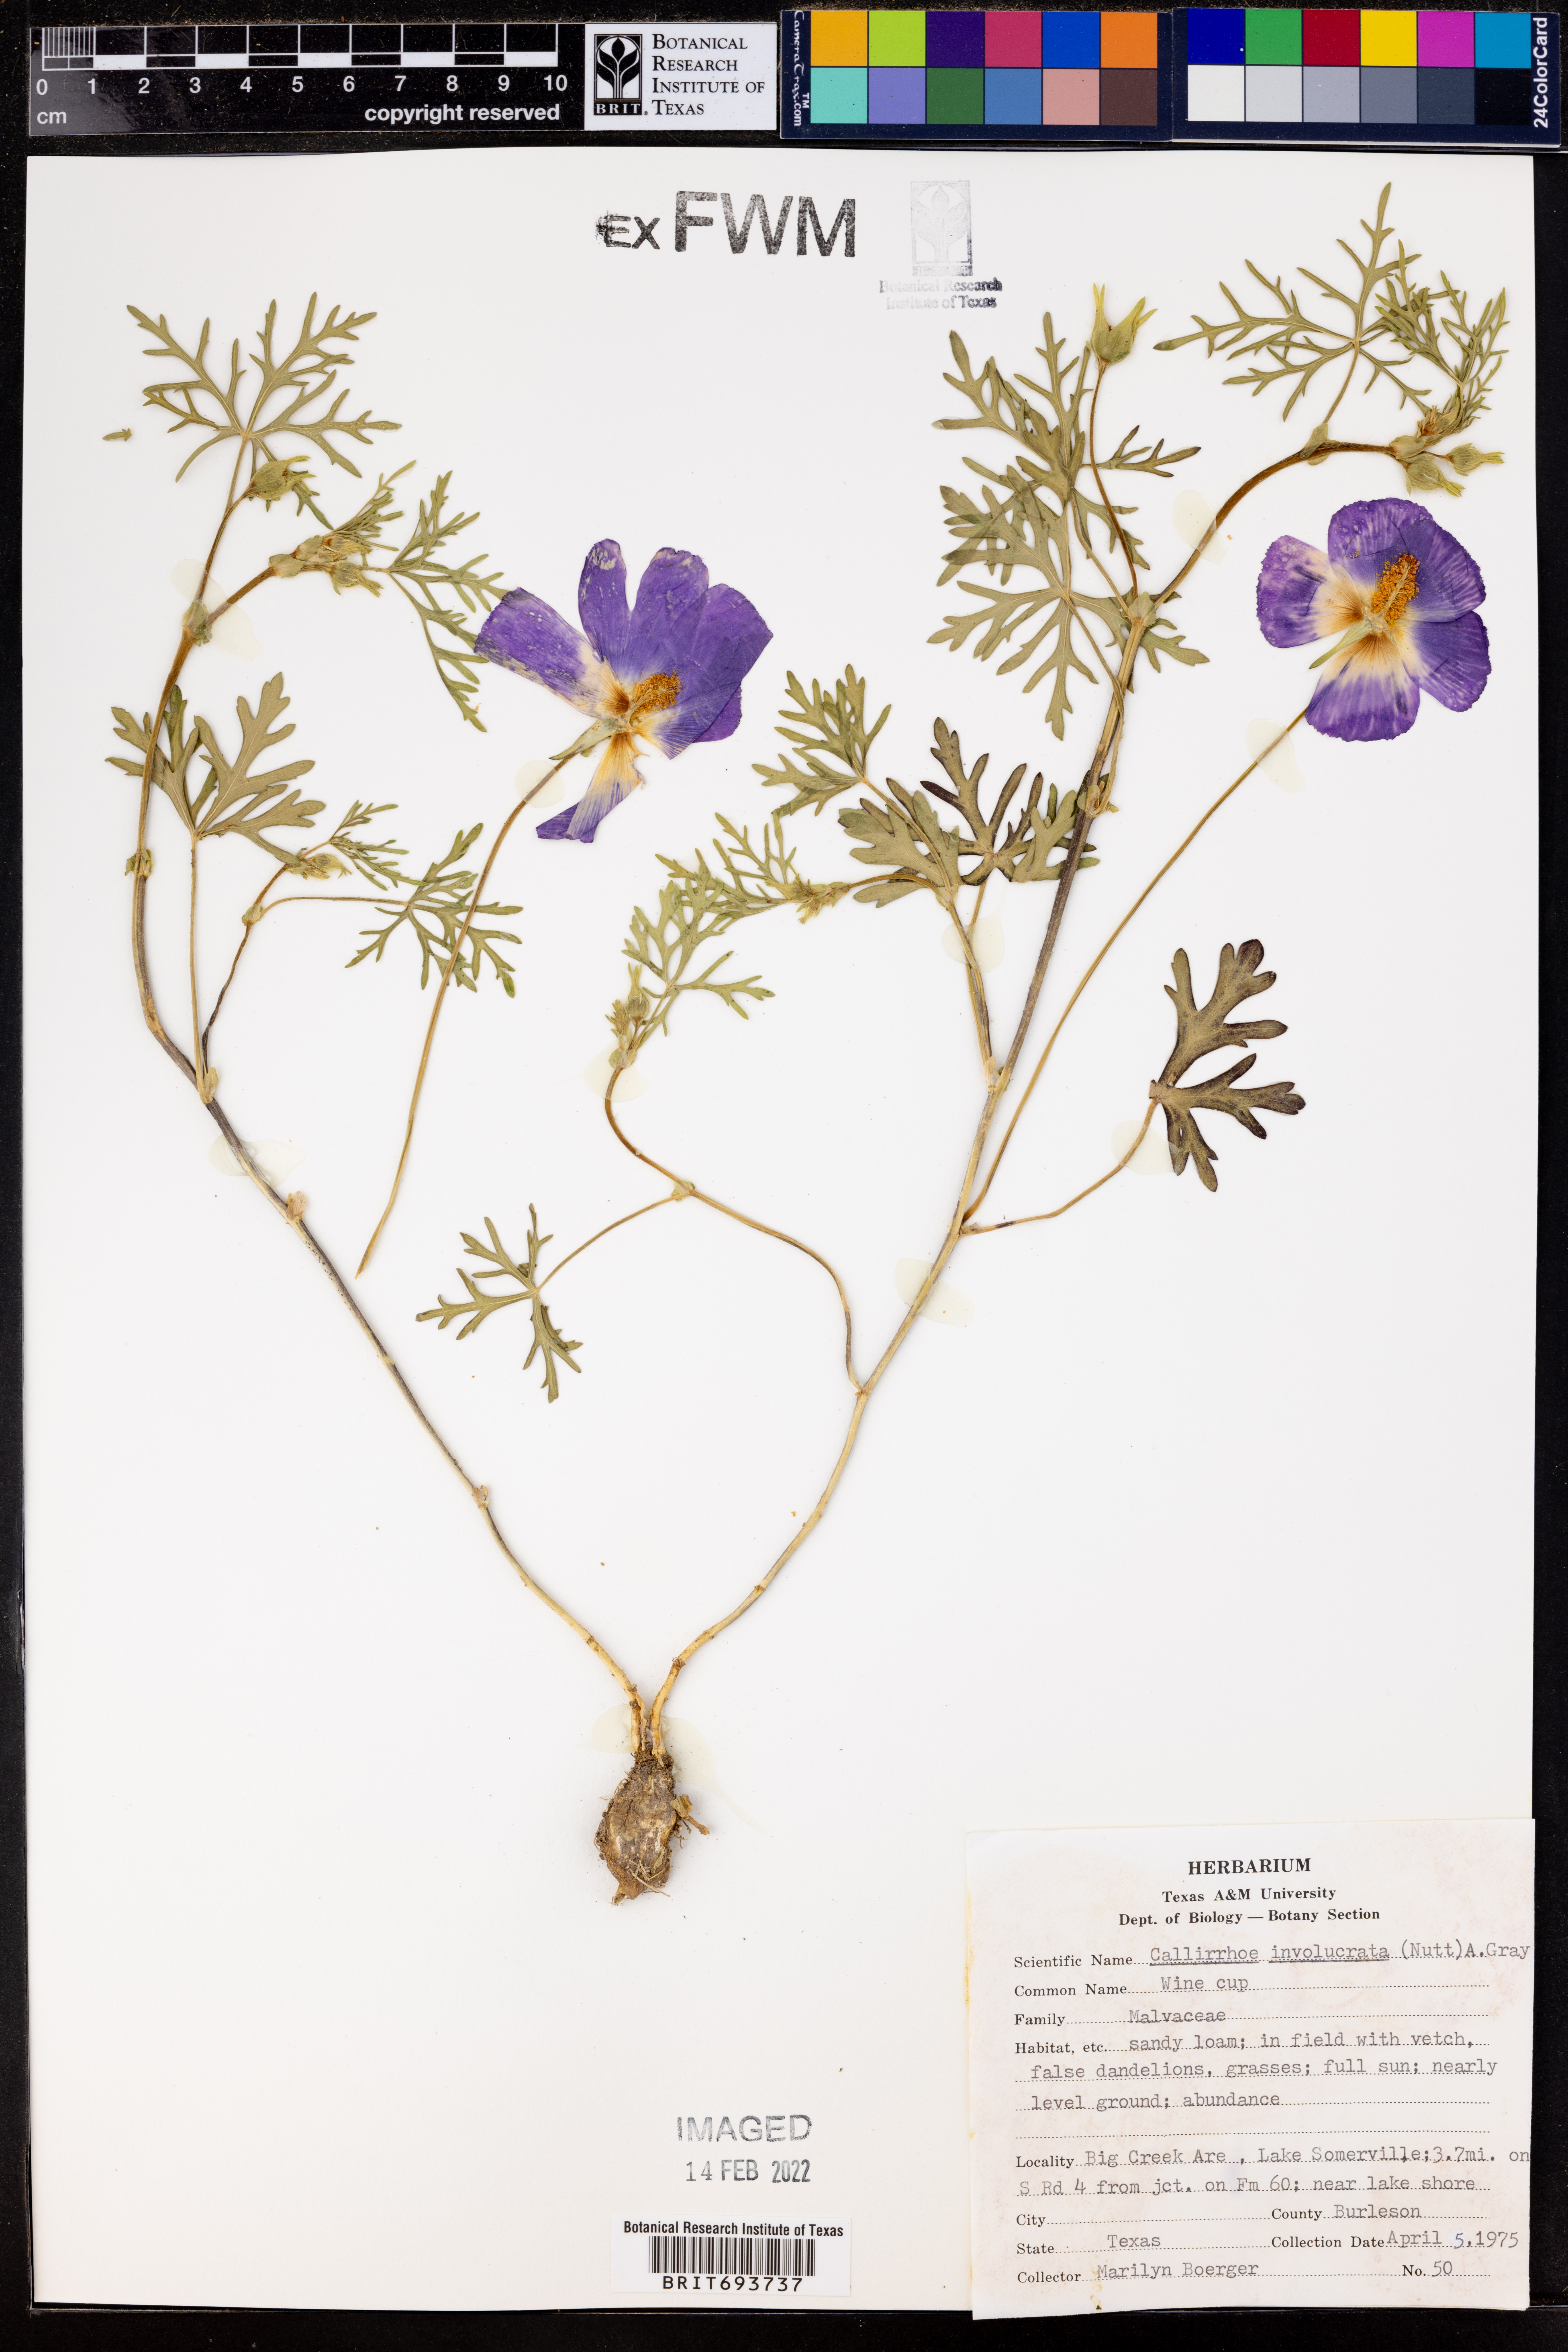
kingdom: Plantae
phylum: Tracheophyta
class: Magnoliopsida
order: Malvales
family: Malvaceae
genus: Callirhoe
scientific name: Callirhoe involucrata
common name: Purple poppy-mallow
